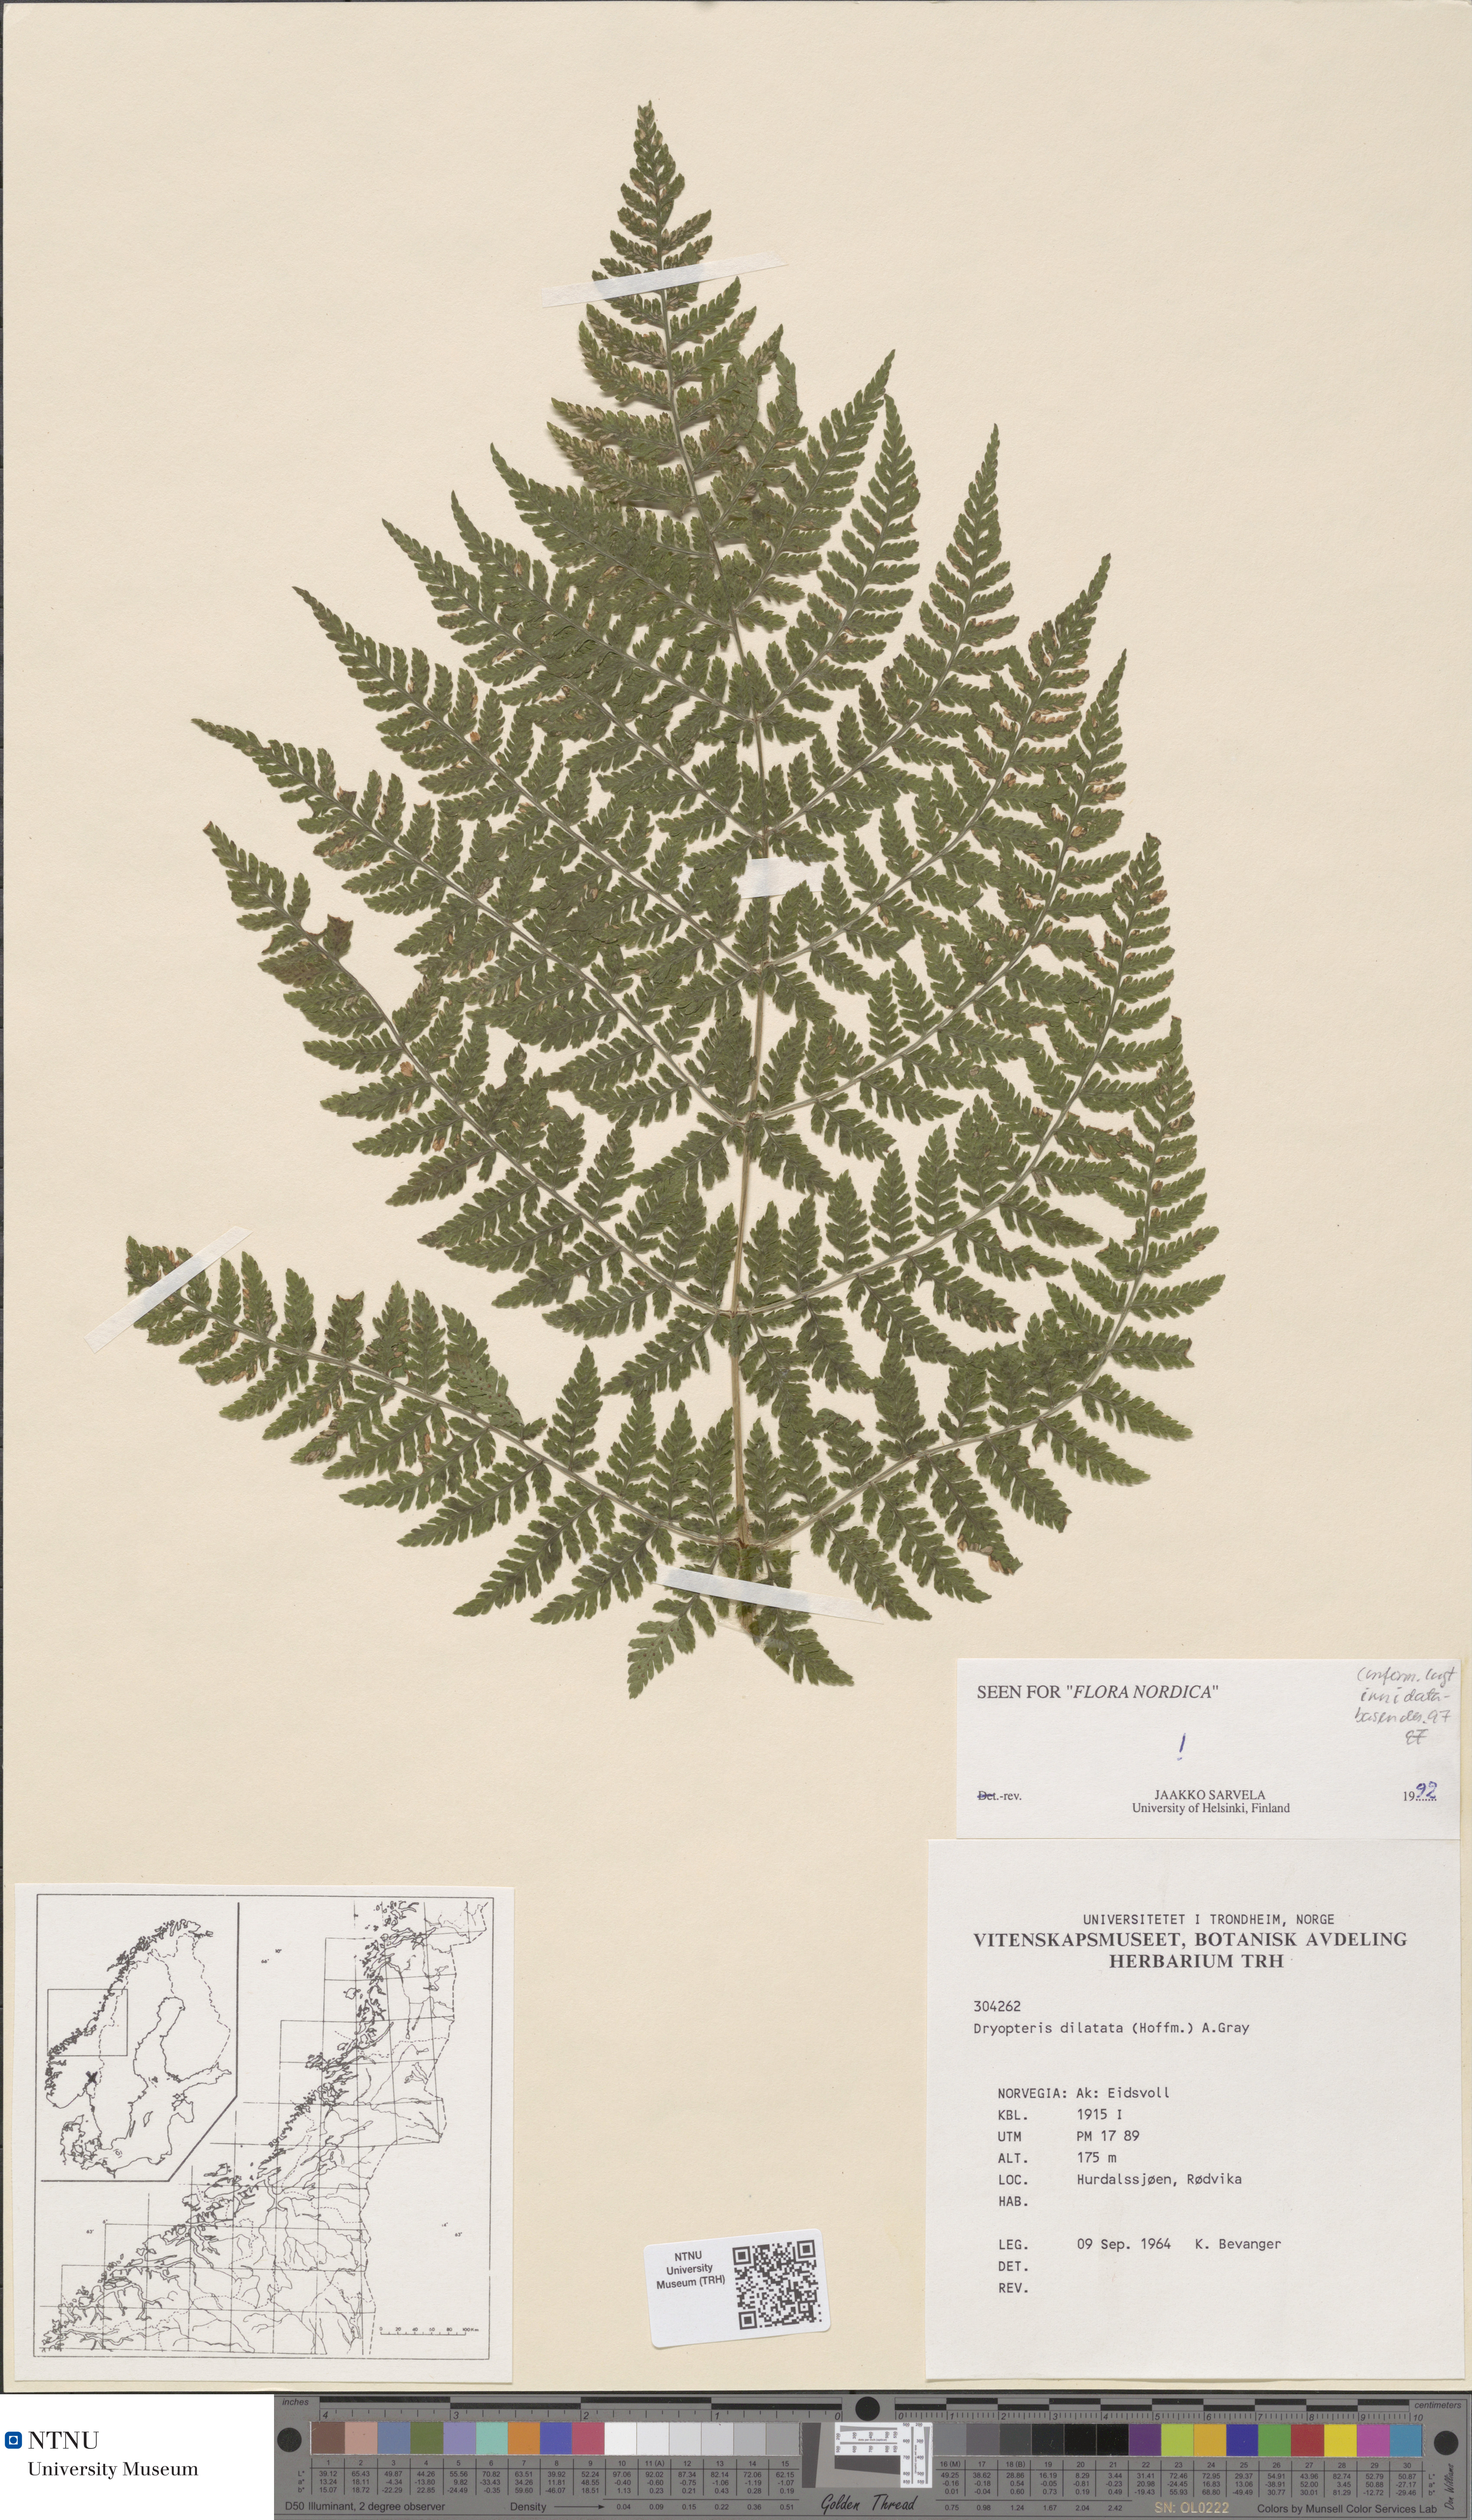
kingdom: Plantae
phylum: Tracheophyta
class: Polypodiopsida
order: Polypodiales
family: Dryopteridaceae
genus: Dryopteris
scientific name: Dryopteris dilatata
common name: Broad buckler-fern
